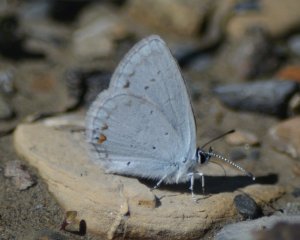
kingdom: Animalia
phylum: Arthropoda
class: Insecta
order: Lepidoptera
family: Lycaenidae
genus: Elkalyce
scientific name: Elkalyce amyntula
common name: Western Tailed-Blue
